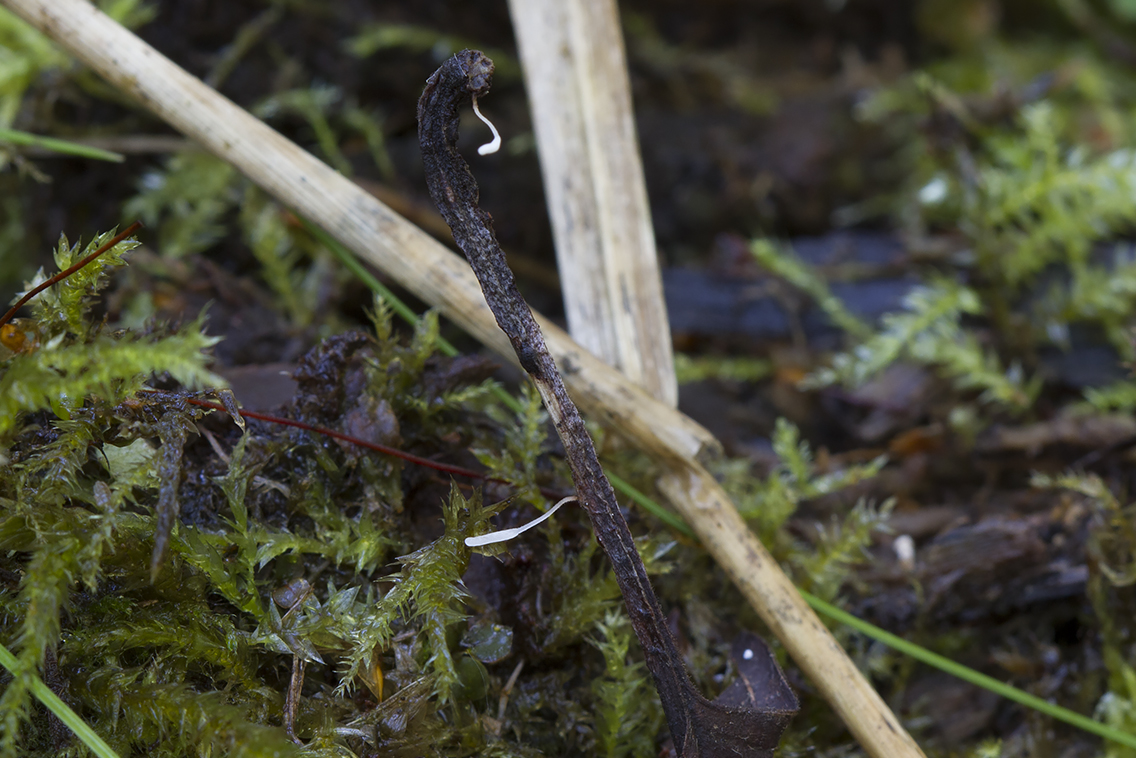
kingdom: Fungi
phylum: Basidiomycota
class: Agaricomycetes
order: Agaricales
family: Typhulaceae
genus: Typhula
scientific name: Typhula
